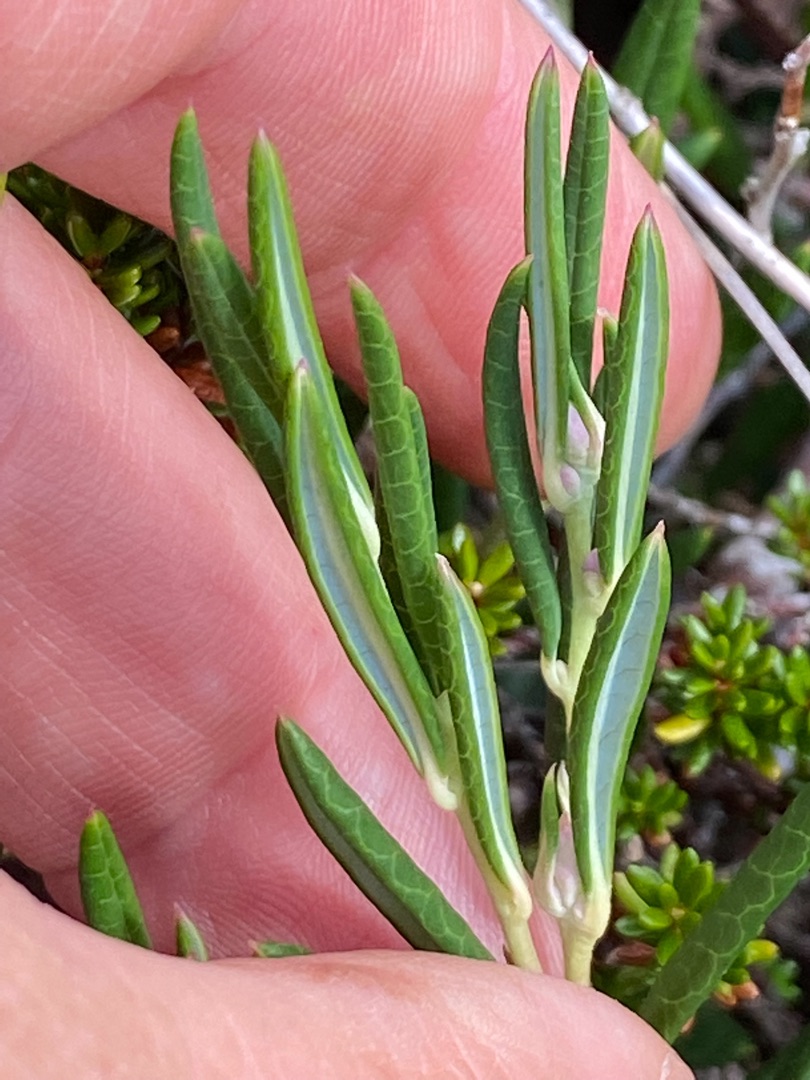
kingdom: Plantae
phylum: Tracheophyta
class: Magnoliopsida
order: Ericales
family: Ericaceae
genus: Andromeda
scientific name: Andromeda polifolia
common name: Rosmarinlyng
